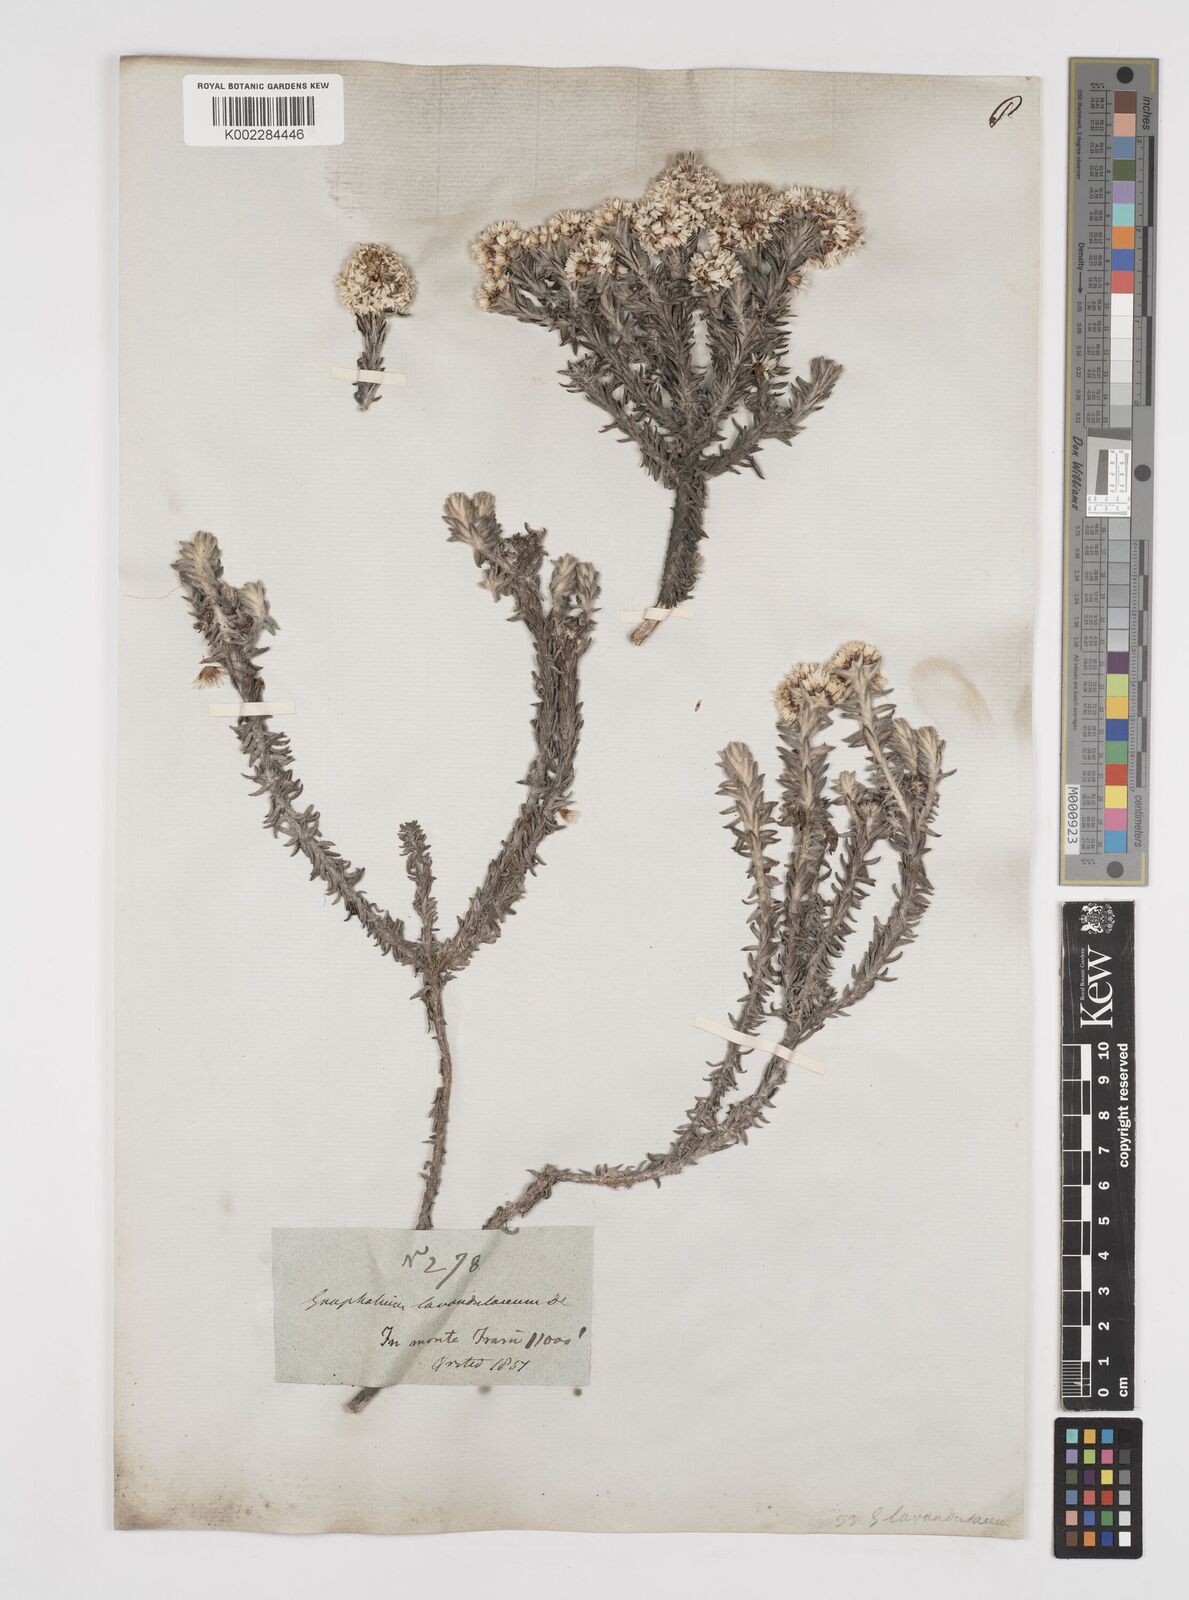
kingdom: Plantae
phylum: Tracheophyta
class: Magnoliopsida
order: Asterales
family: Asteraceae
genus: Gnaphaliothamnus
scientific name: Gnaphaliothamnus lavandulifolius
